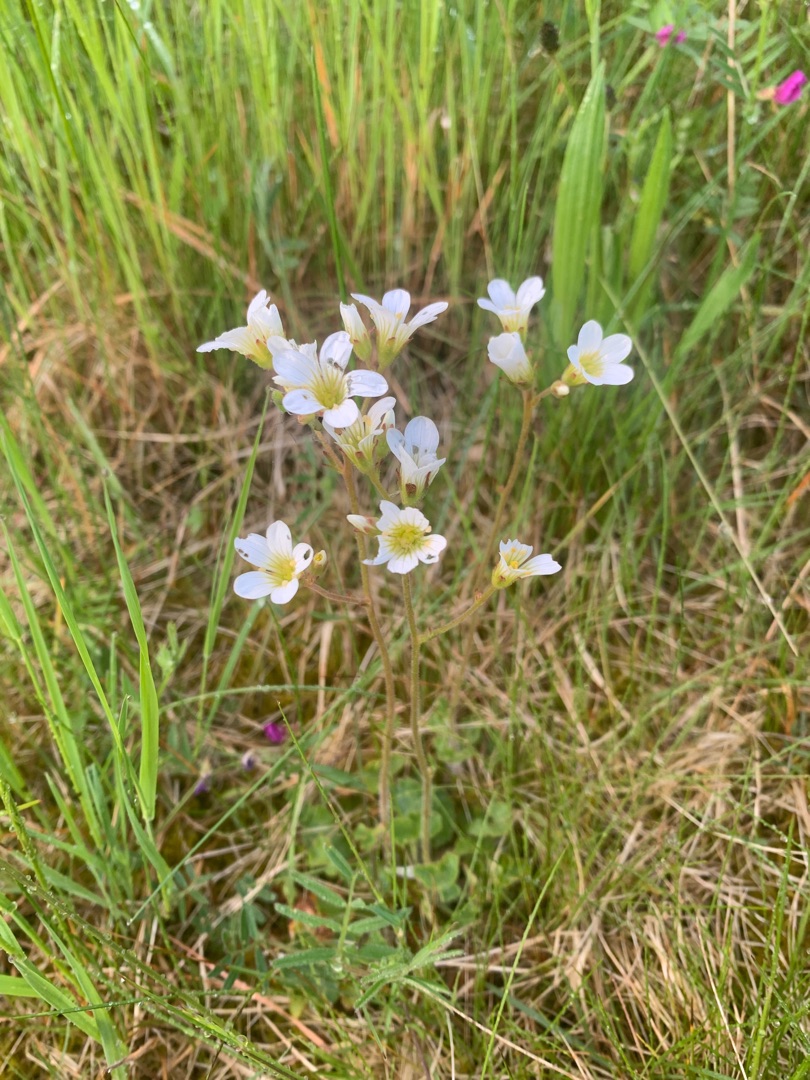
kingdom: Plantae
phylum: Tracheophyta
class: Magnoliopsida
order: Saxifragales
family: Saxifragaceae
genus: Saxifraga
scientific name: Saxifraga granulata
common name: Kornet stenbræk
